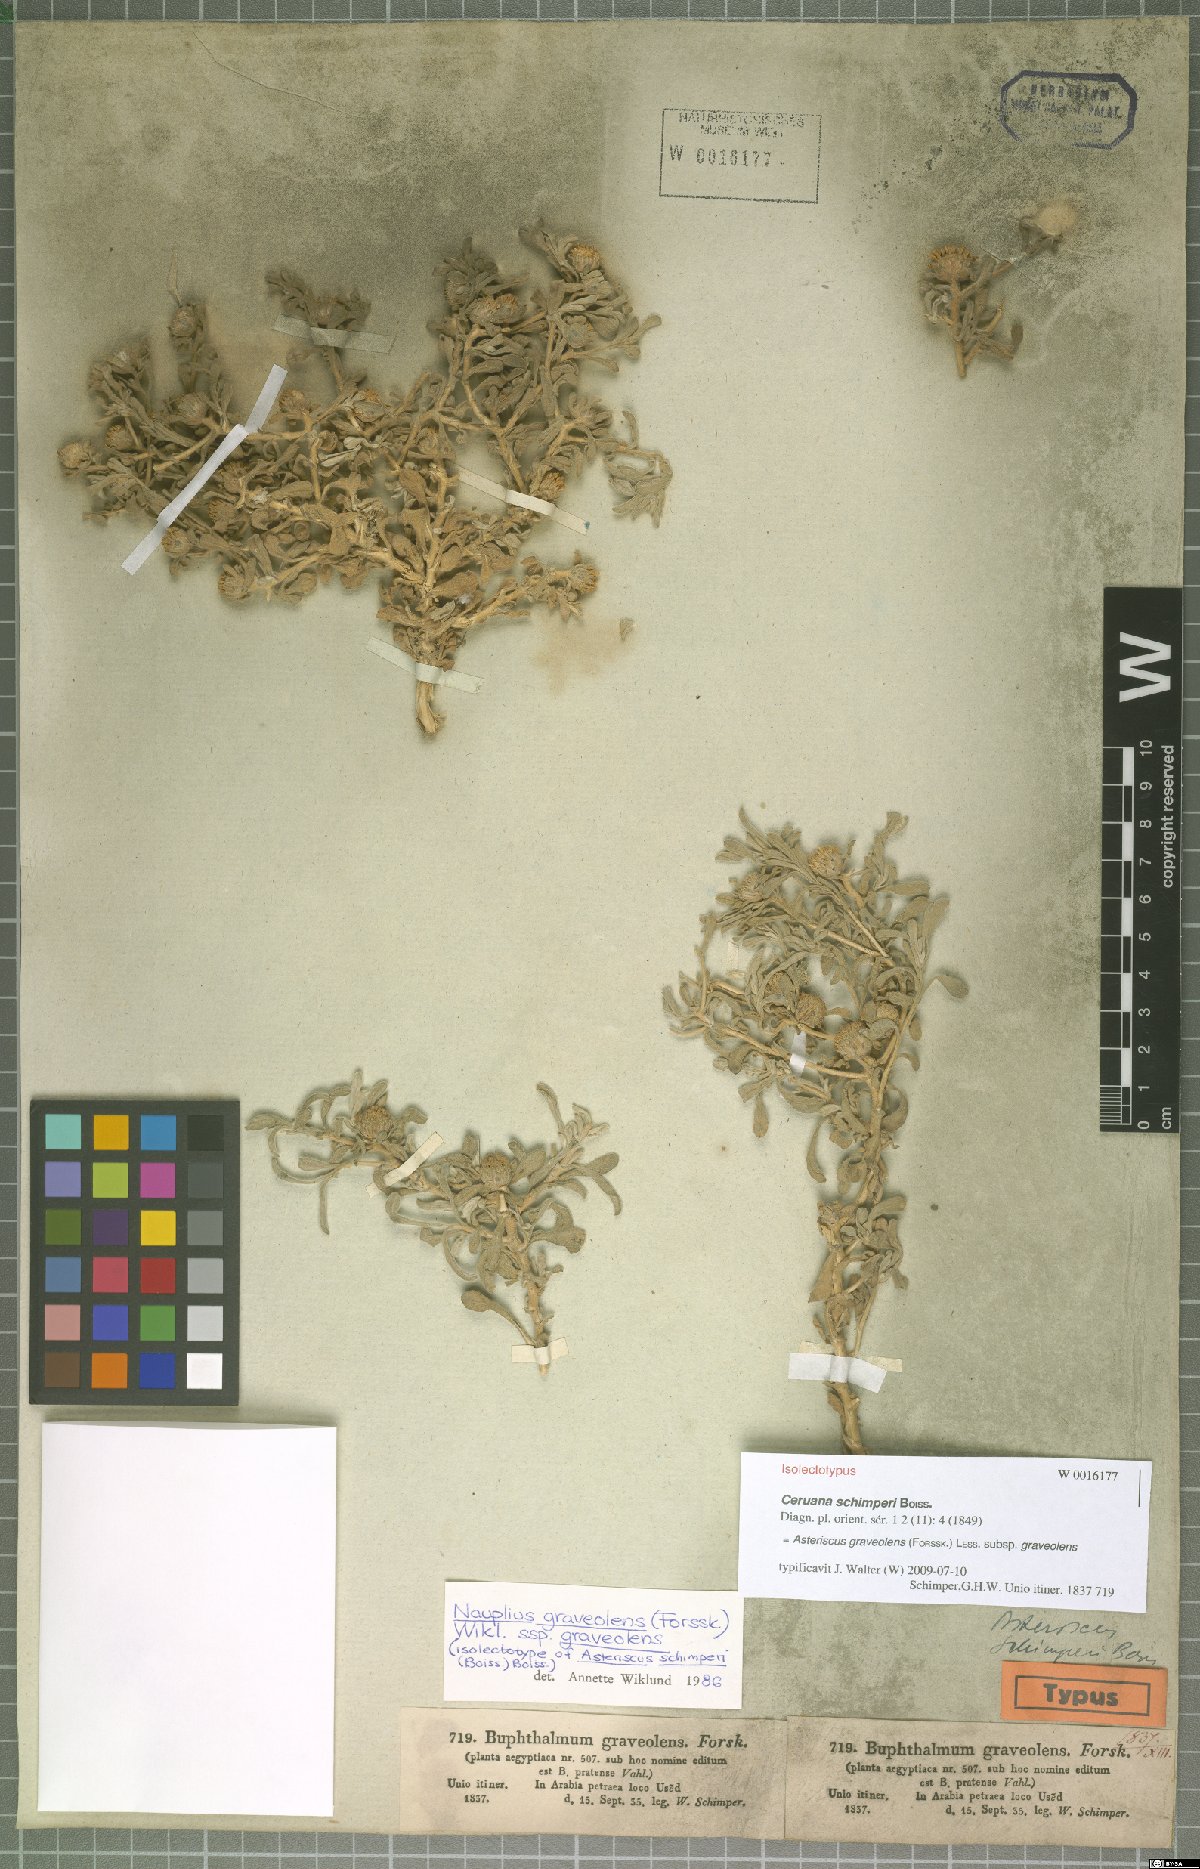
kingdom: Plantae
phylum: Tracheophyta
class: Magnoliopsida
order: Asterales
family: Asteraceae
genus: Asteriscus
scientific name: Asteriscus graveolens
